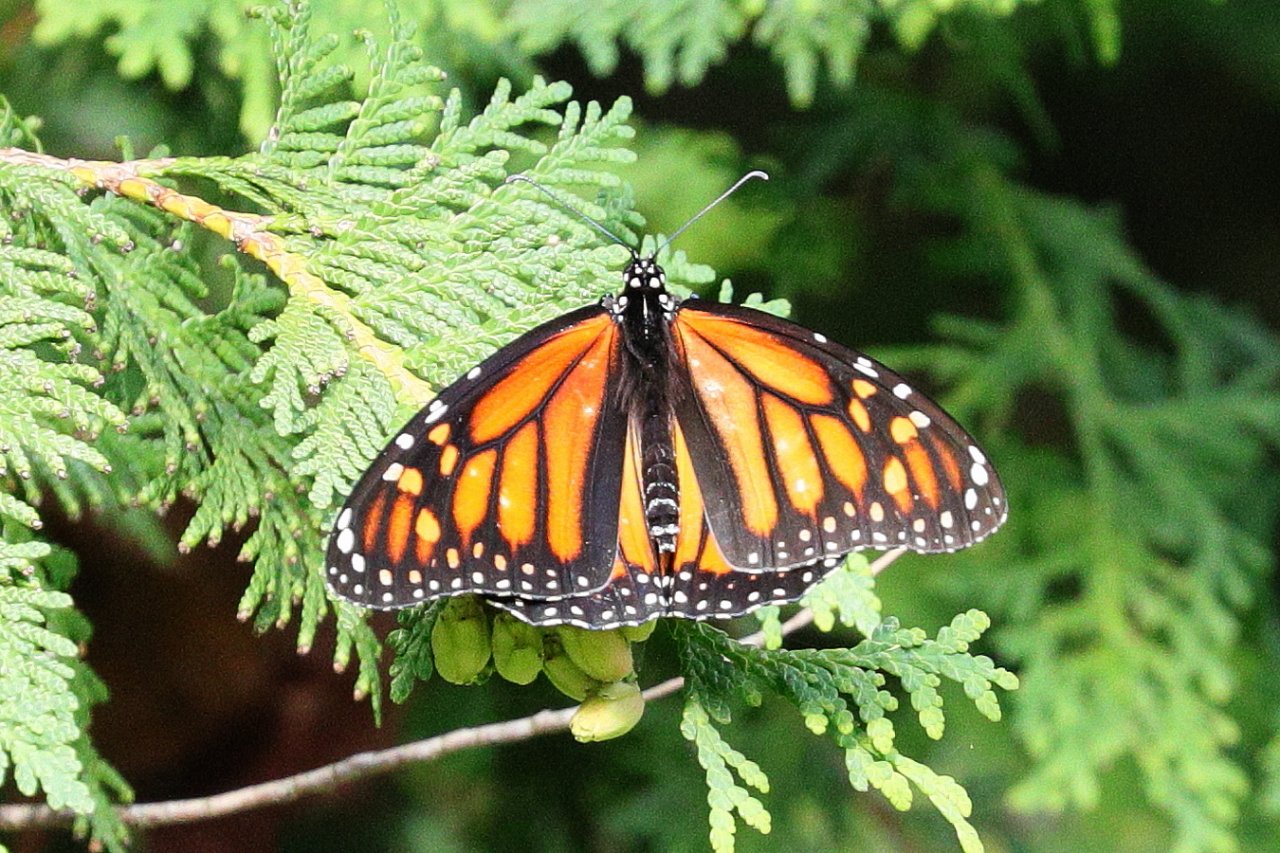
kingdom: Animalia
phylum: Arthropoda
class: Insecta
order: Lepidoptera
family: Nymphalidae
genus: Danaus
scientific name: Danaus plexippus
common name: Monarch
